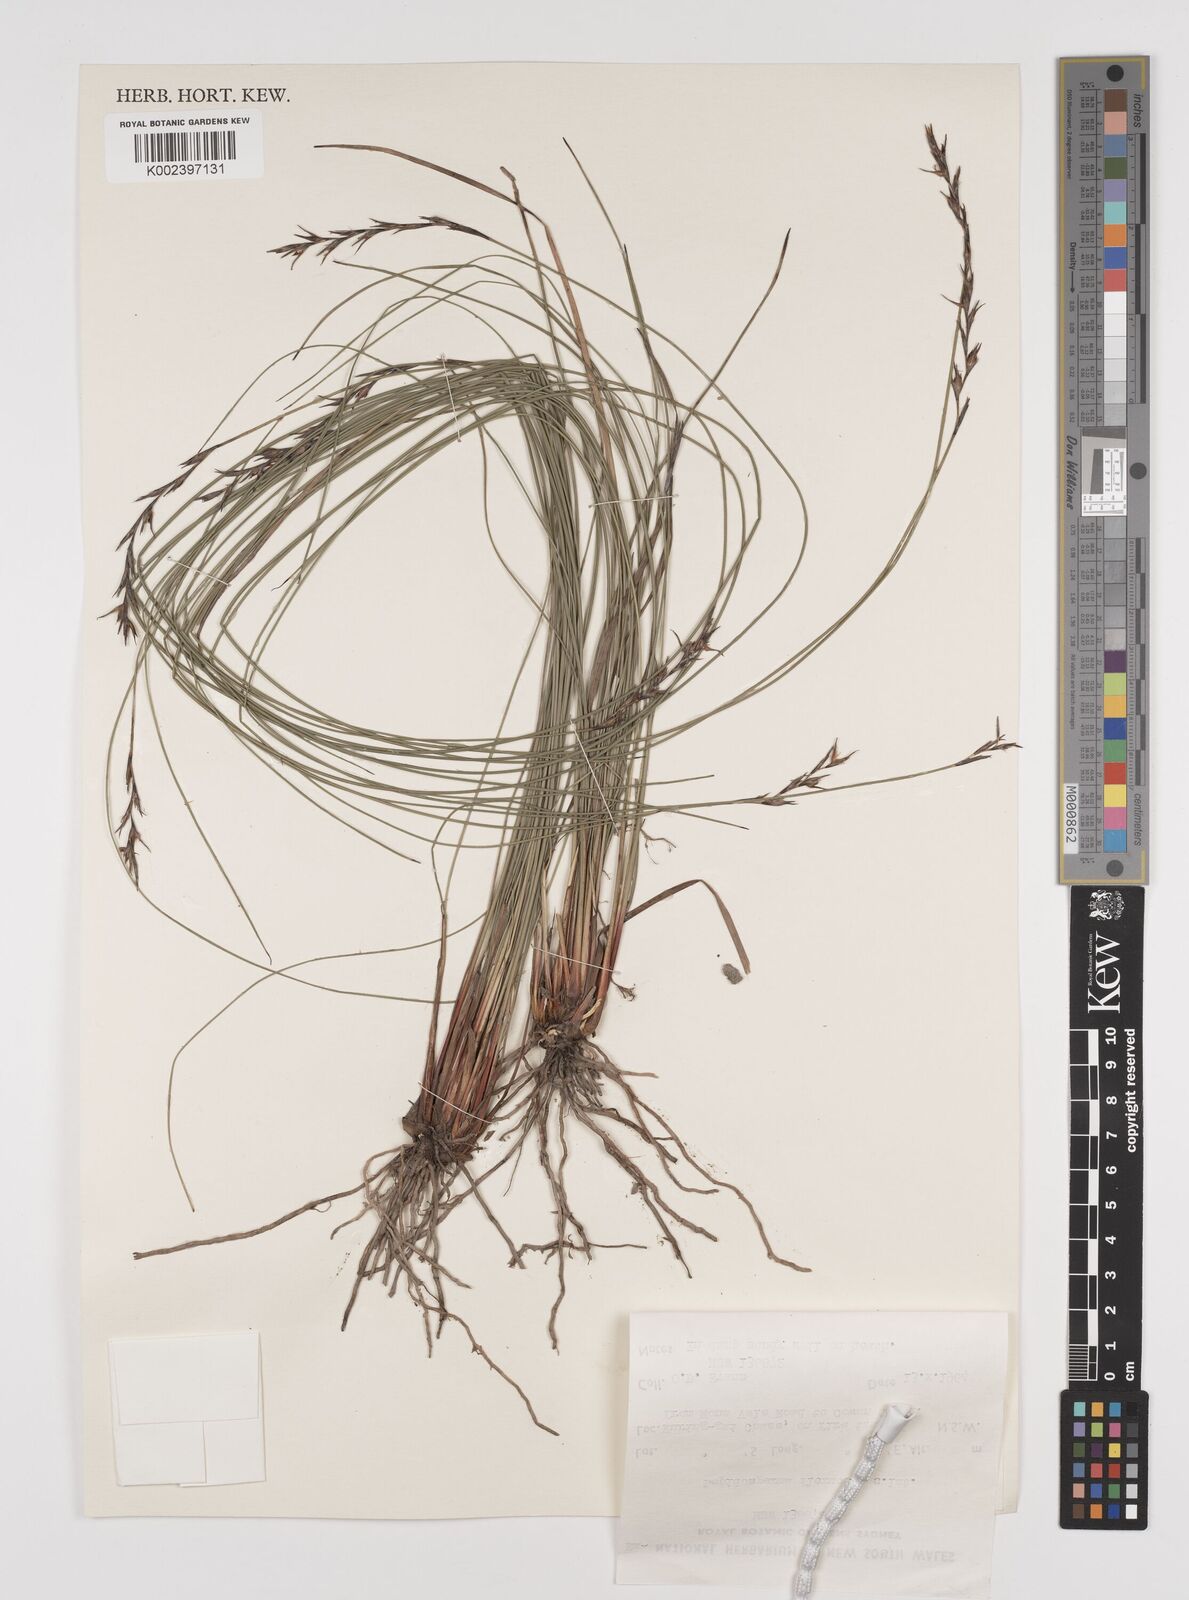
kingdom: Plantae
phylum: Tracheophyta
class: Liliopsida
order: Poales
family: Cyperaceae
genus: Lepidosperma
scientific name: Lepidosperma flexuosum
